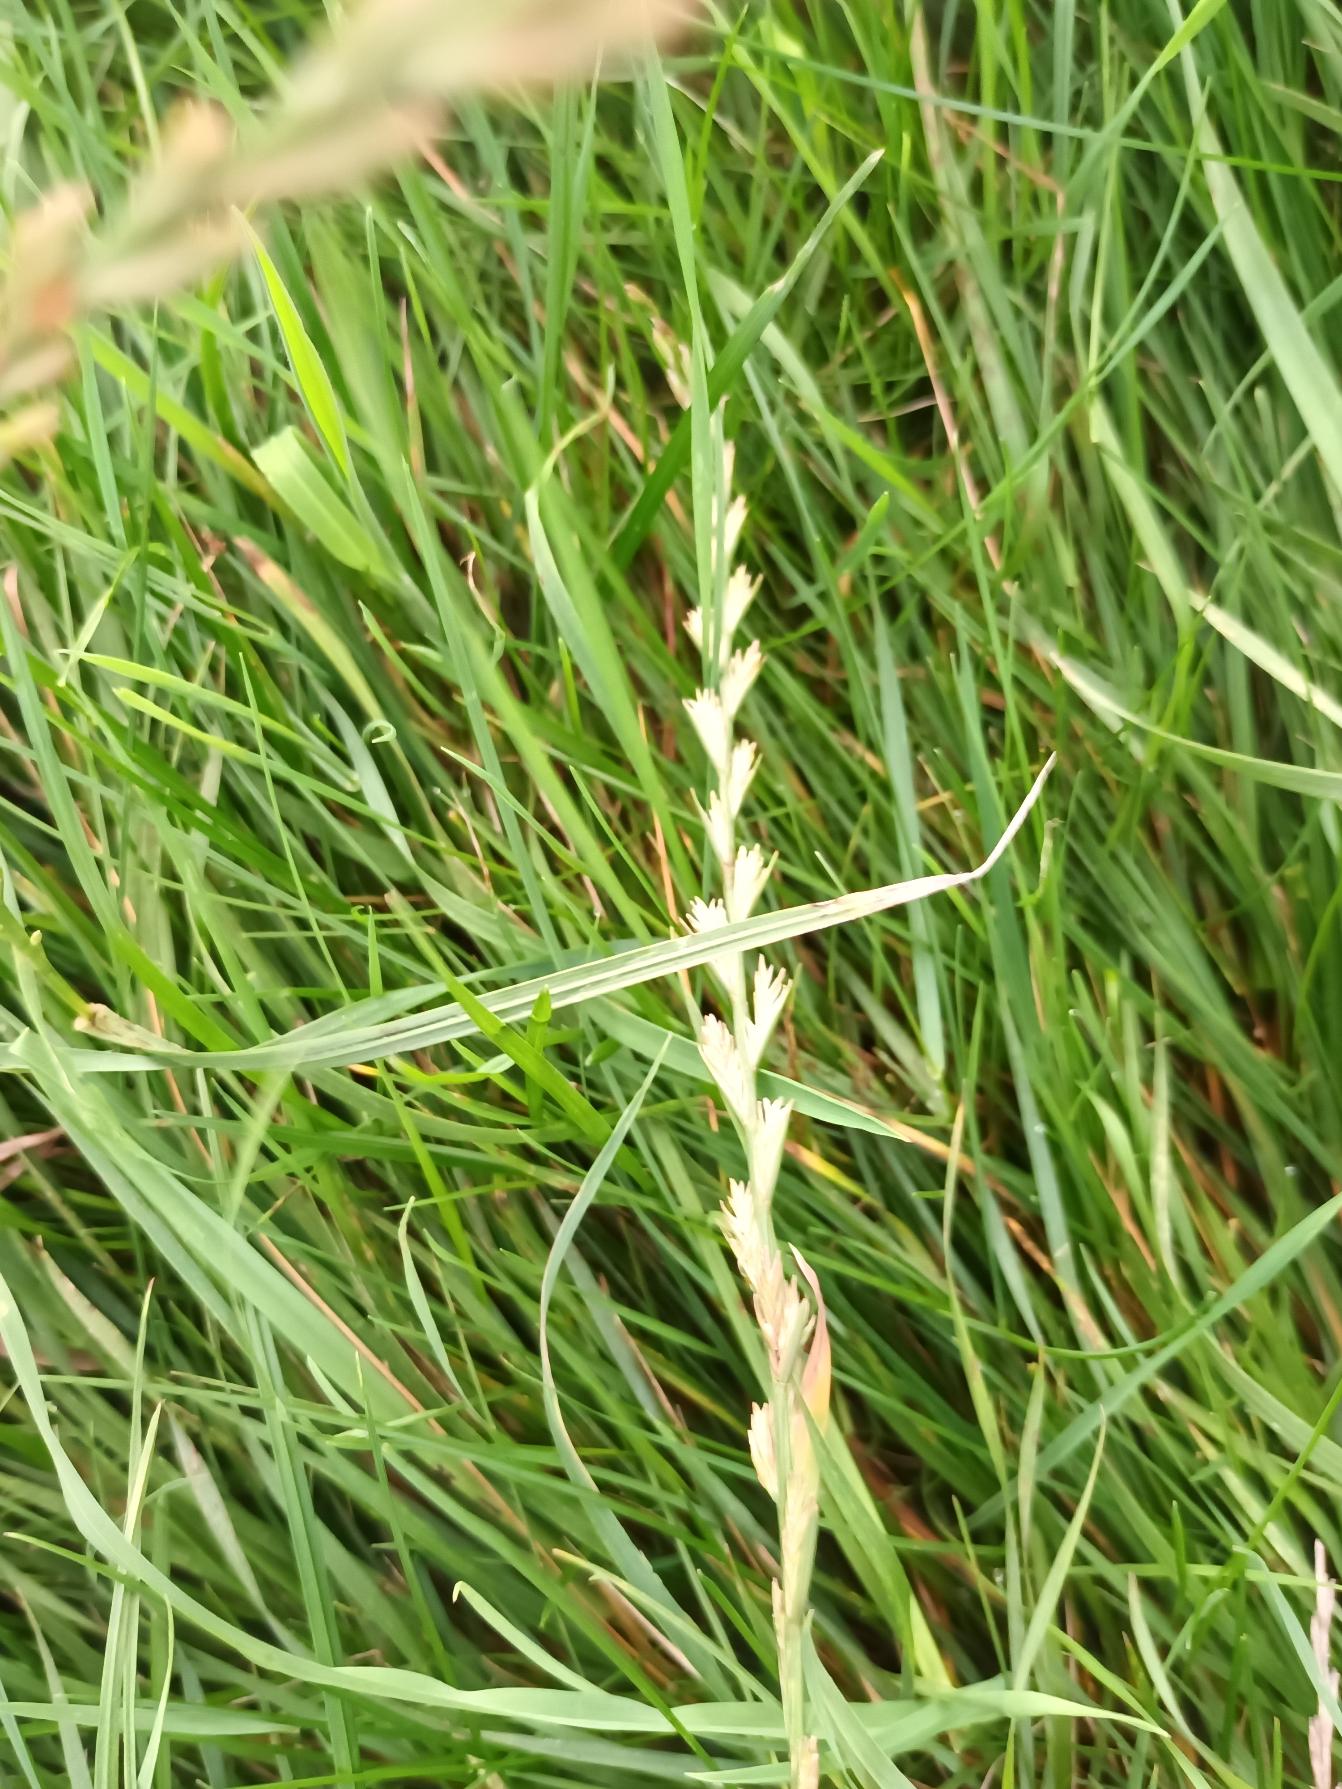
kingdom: Plantae
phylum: Tracheophyta
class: Liliopsida
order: Poales
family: Poaceae
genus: Lolium
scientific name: Lolium perenne
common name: Almindelig rajgræs
